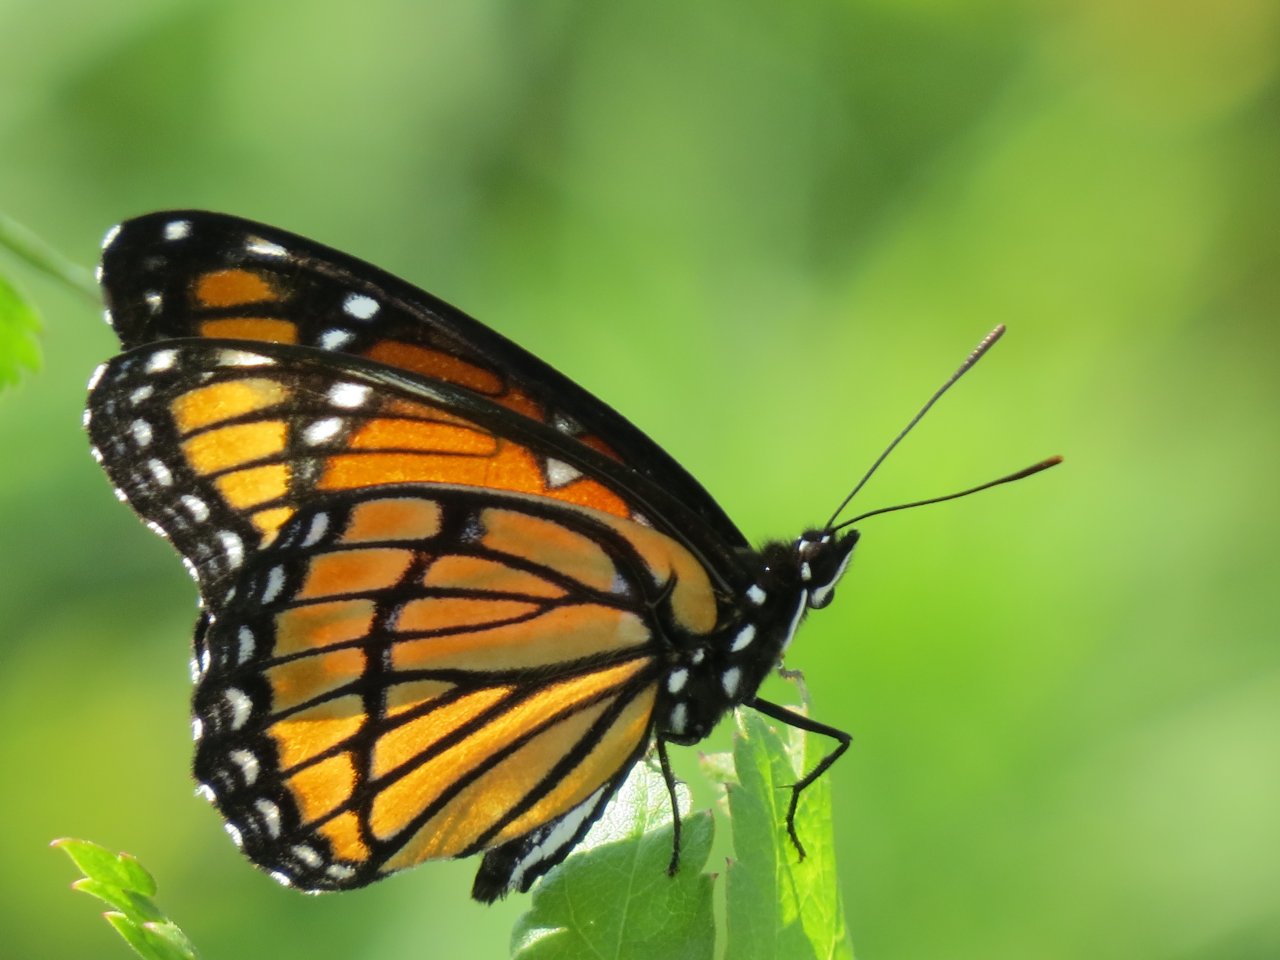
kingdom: Animalia
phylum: Arthropoda
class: Insecta
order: Lepidoptera
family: Nymphalidae
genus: Limenitis
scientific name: Limenitis archippus
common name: Viceroy
